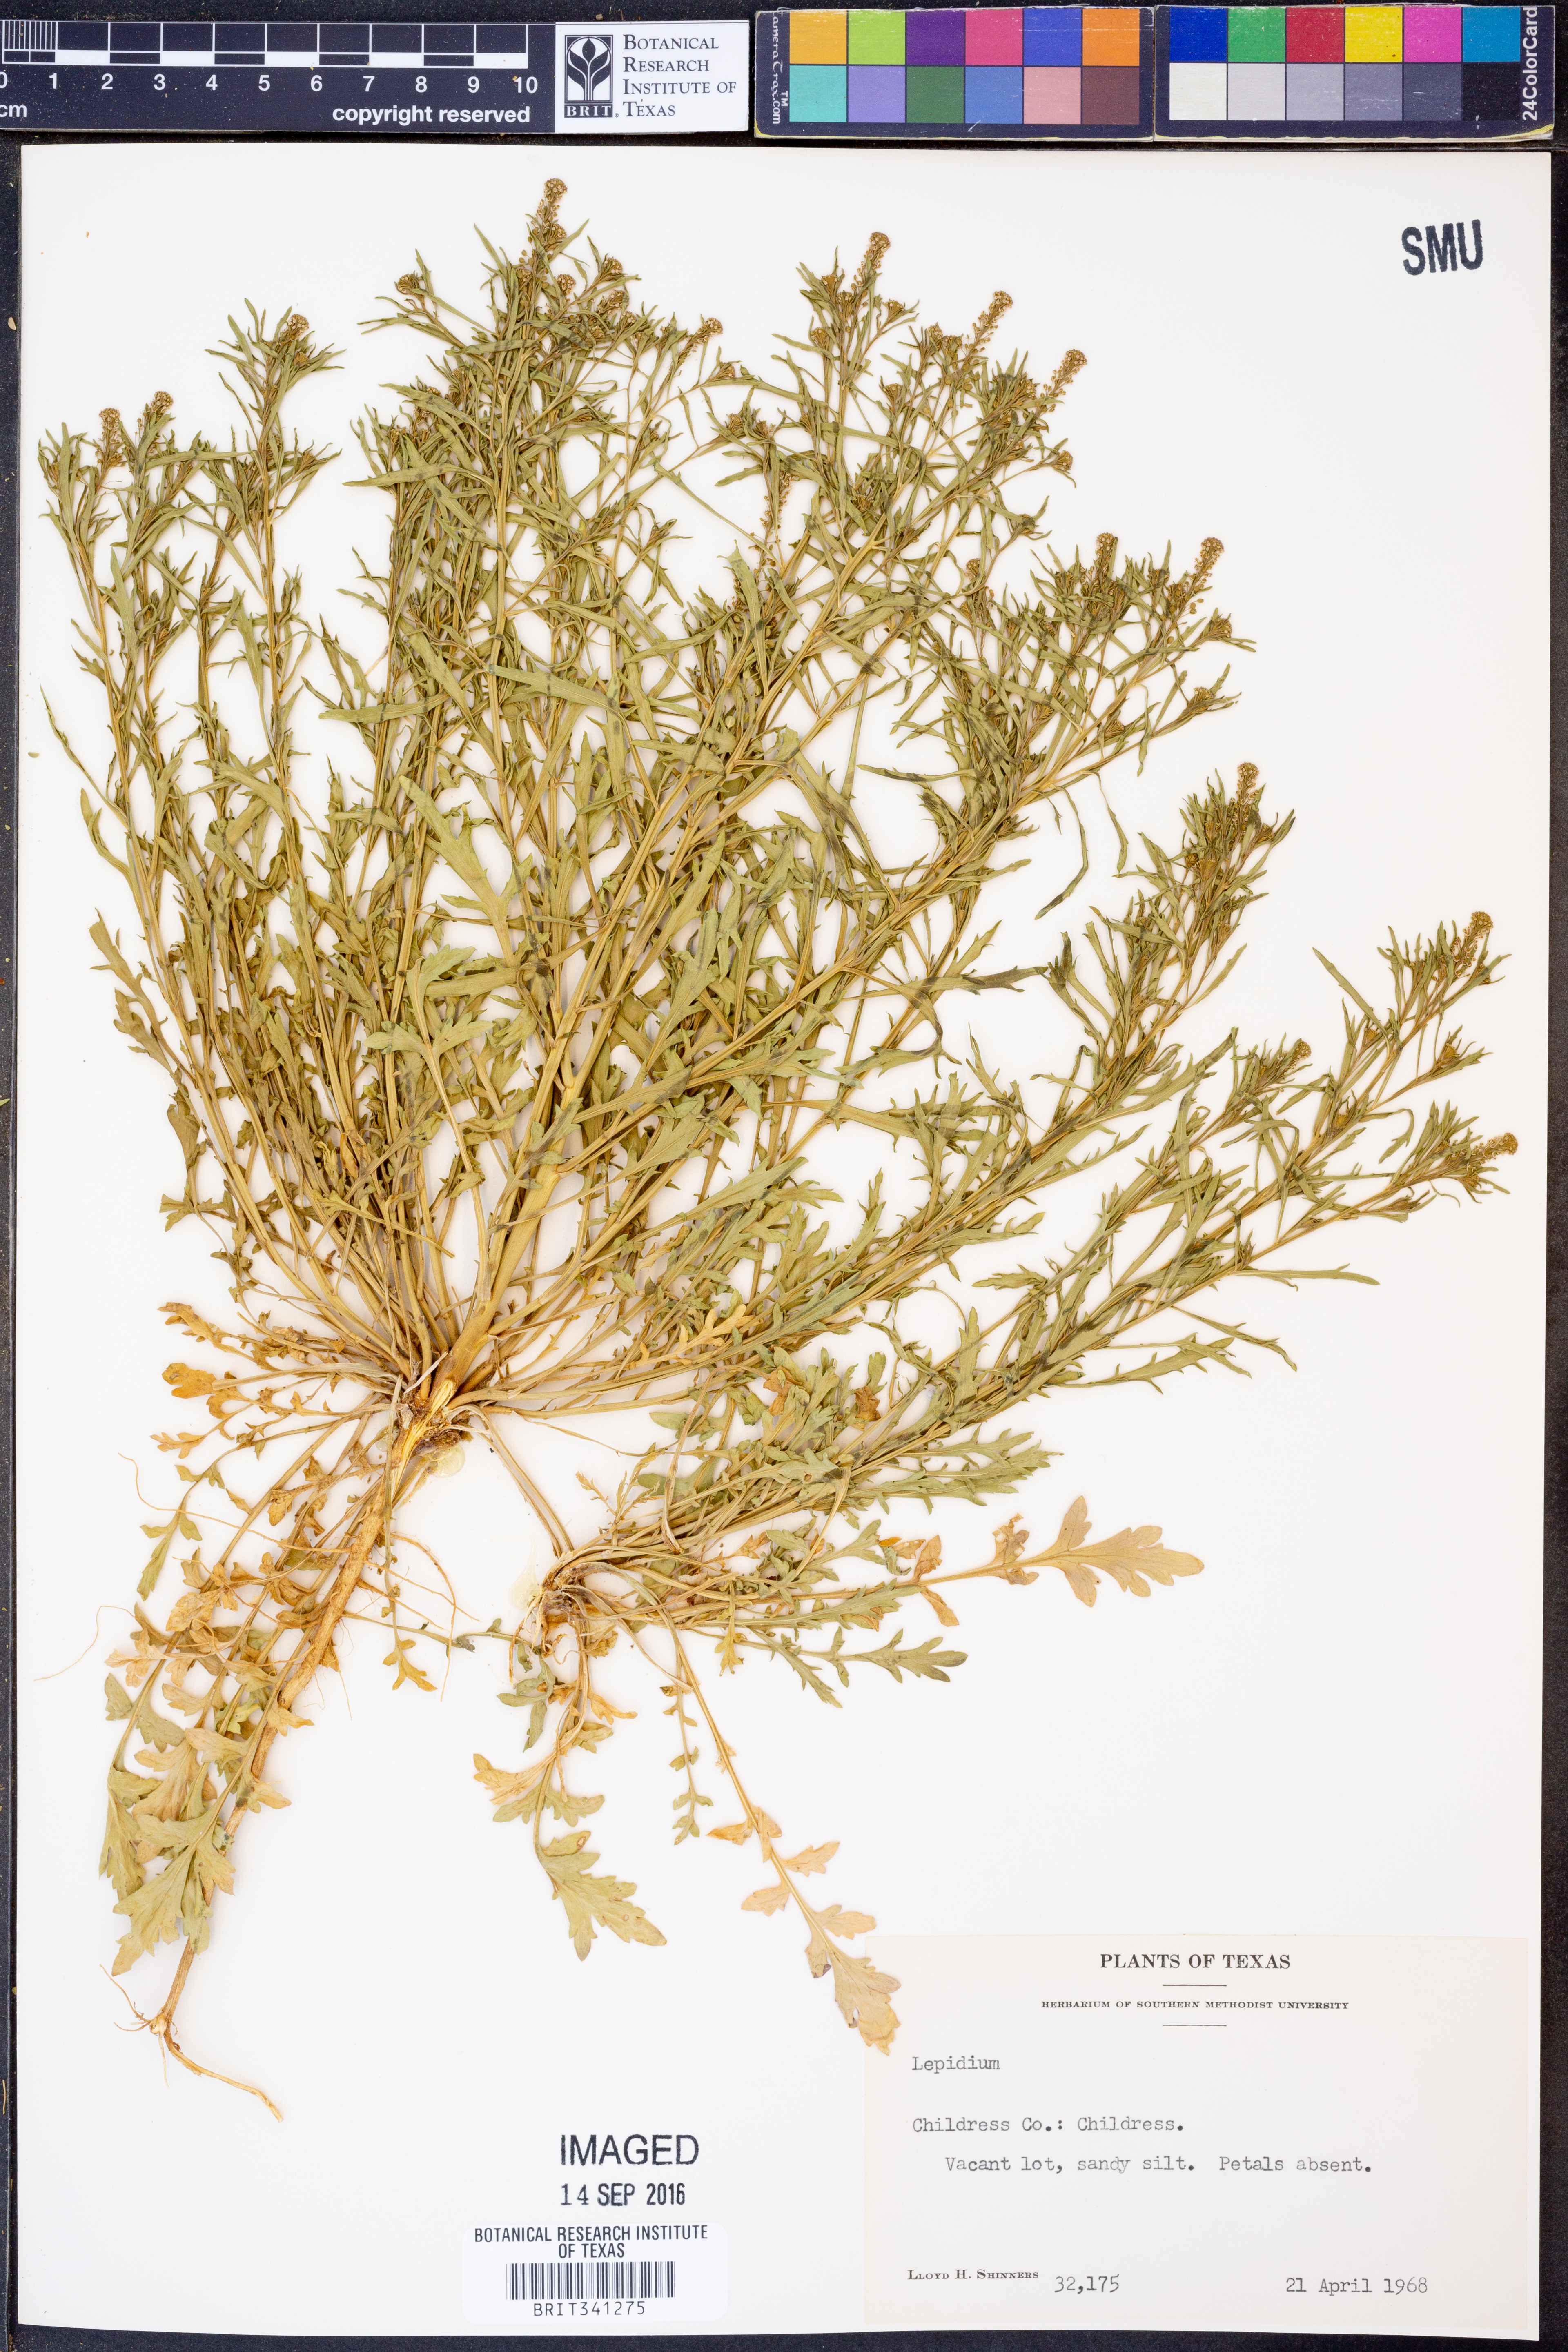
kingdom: Plantae
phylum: Tracheophyta
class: Magnoliopsida
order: Brassicales
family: Brassicaceae
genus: Lepidium
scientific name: Lepidium
